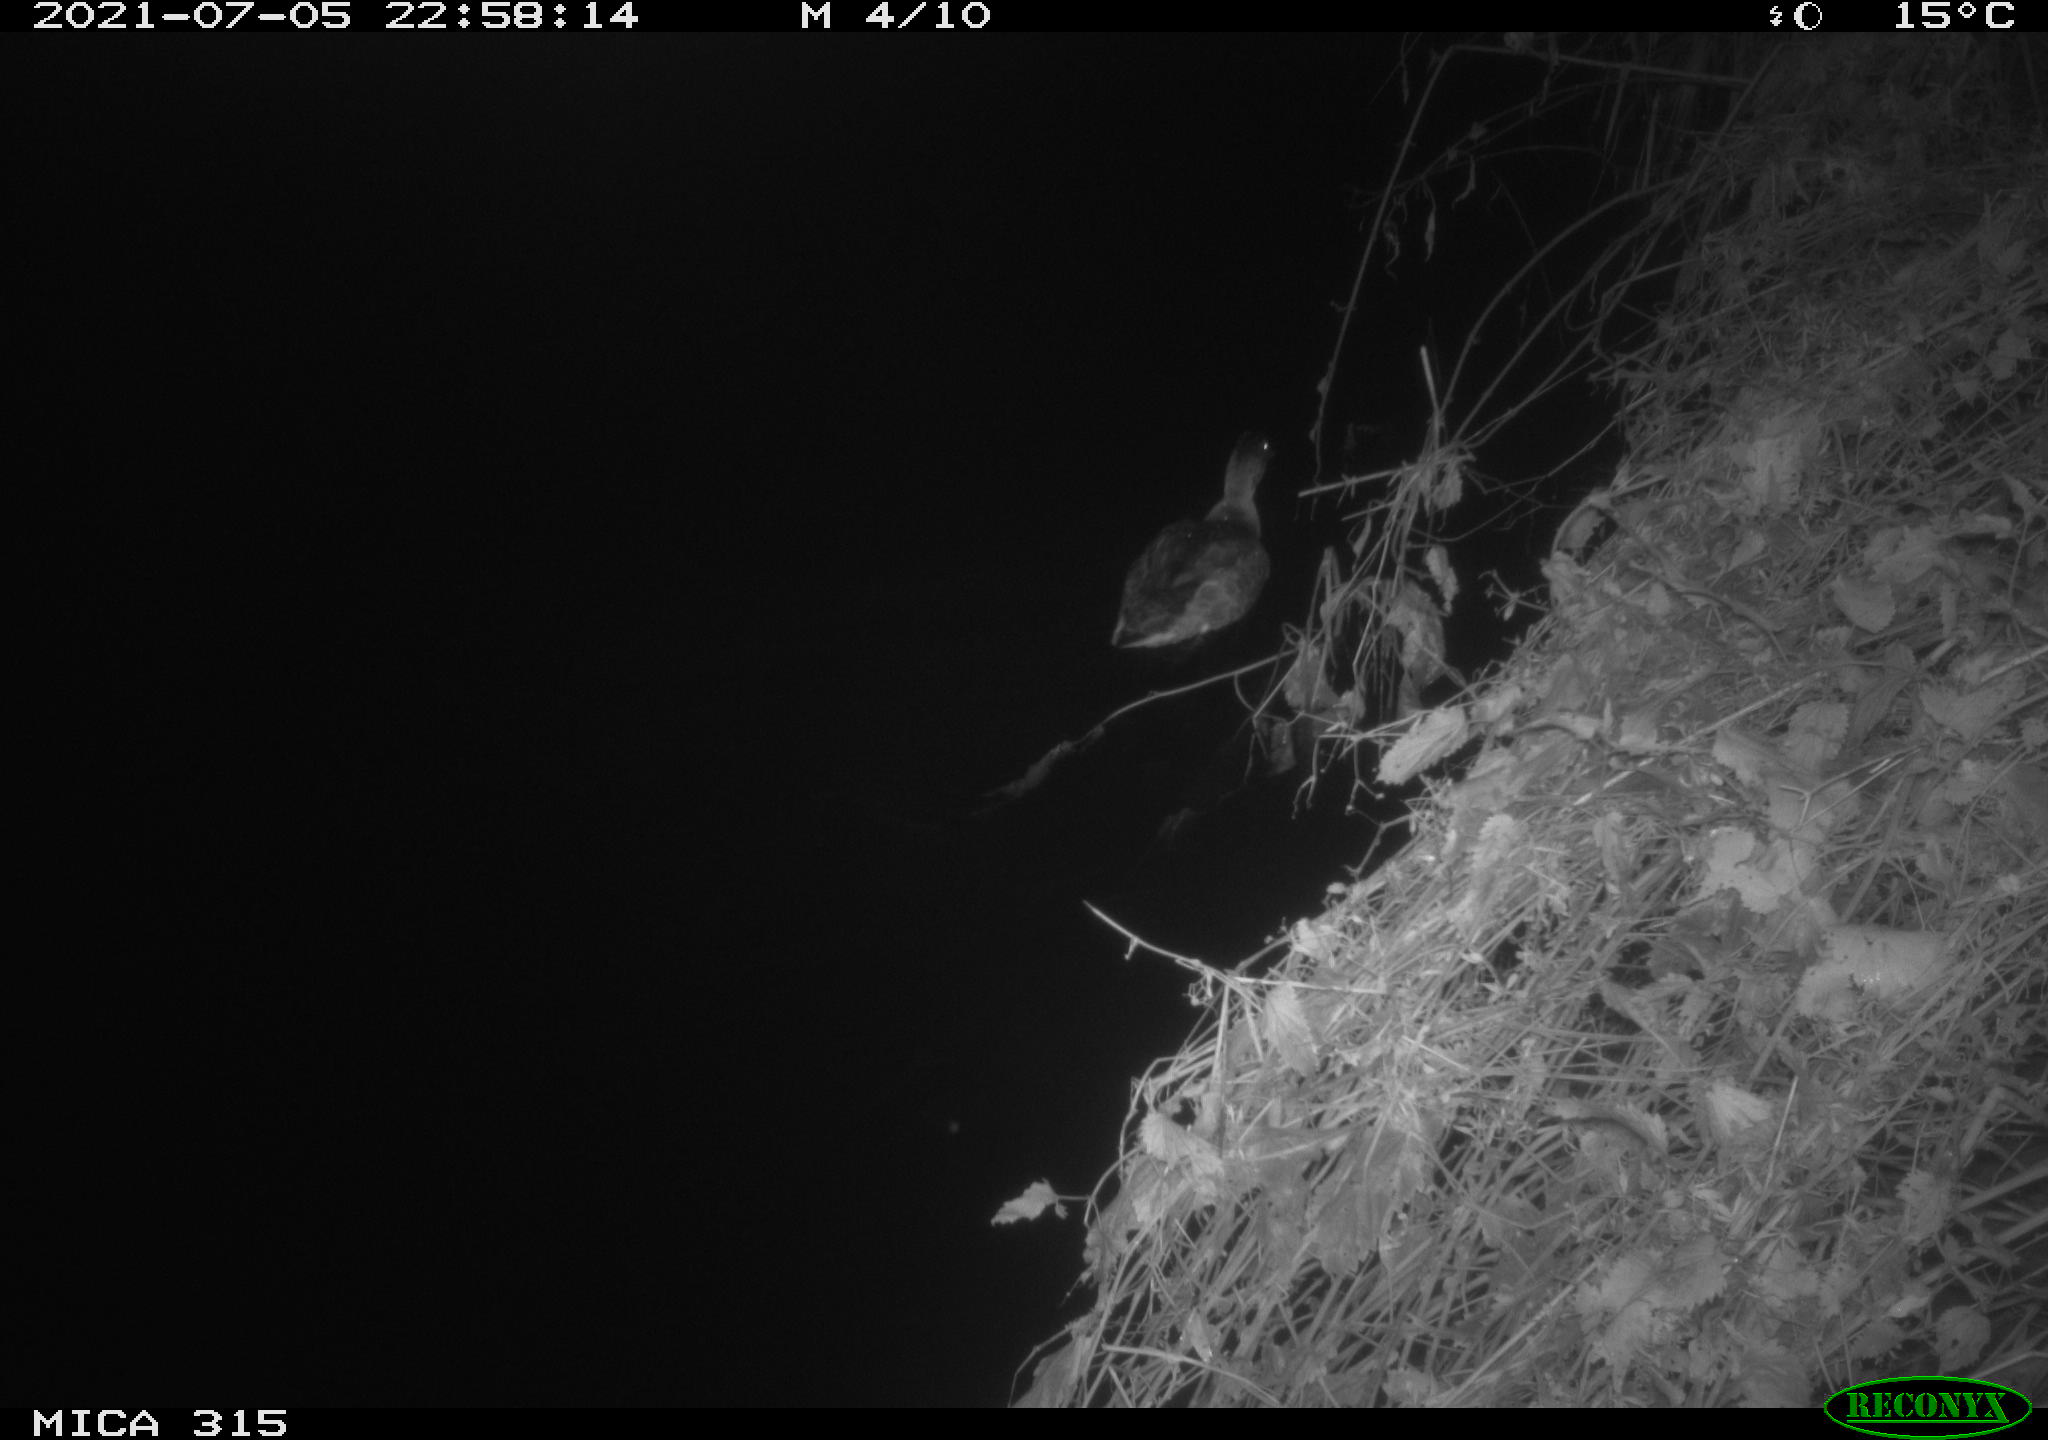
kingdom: Animalia
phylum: Chordata
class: Aves
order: Anseriformes
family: Anatidae
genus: Anas
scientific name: Anas platyrhynchos
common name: Mallard
